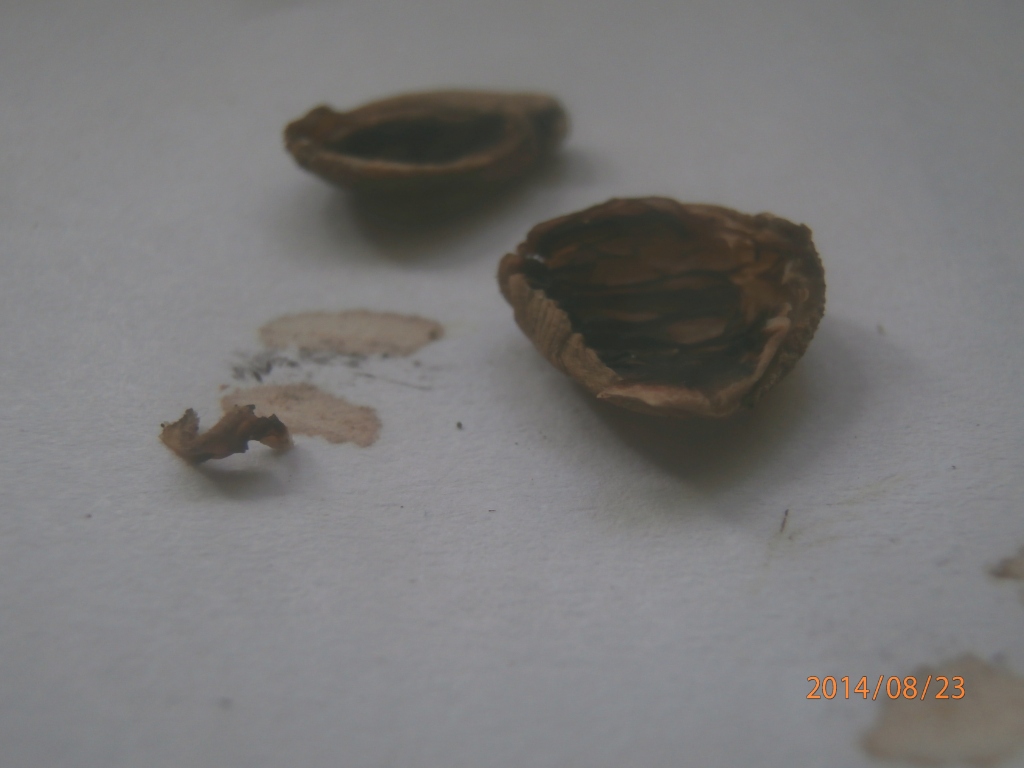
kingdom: Fungi
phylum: Basidiomycota
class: Agaricomycetes
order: Agaricales
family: Psathyrellaceae
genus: Coprinellus
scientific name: Coprinellus xanthothrix
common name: gultrådet blækhat
